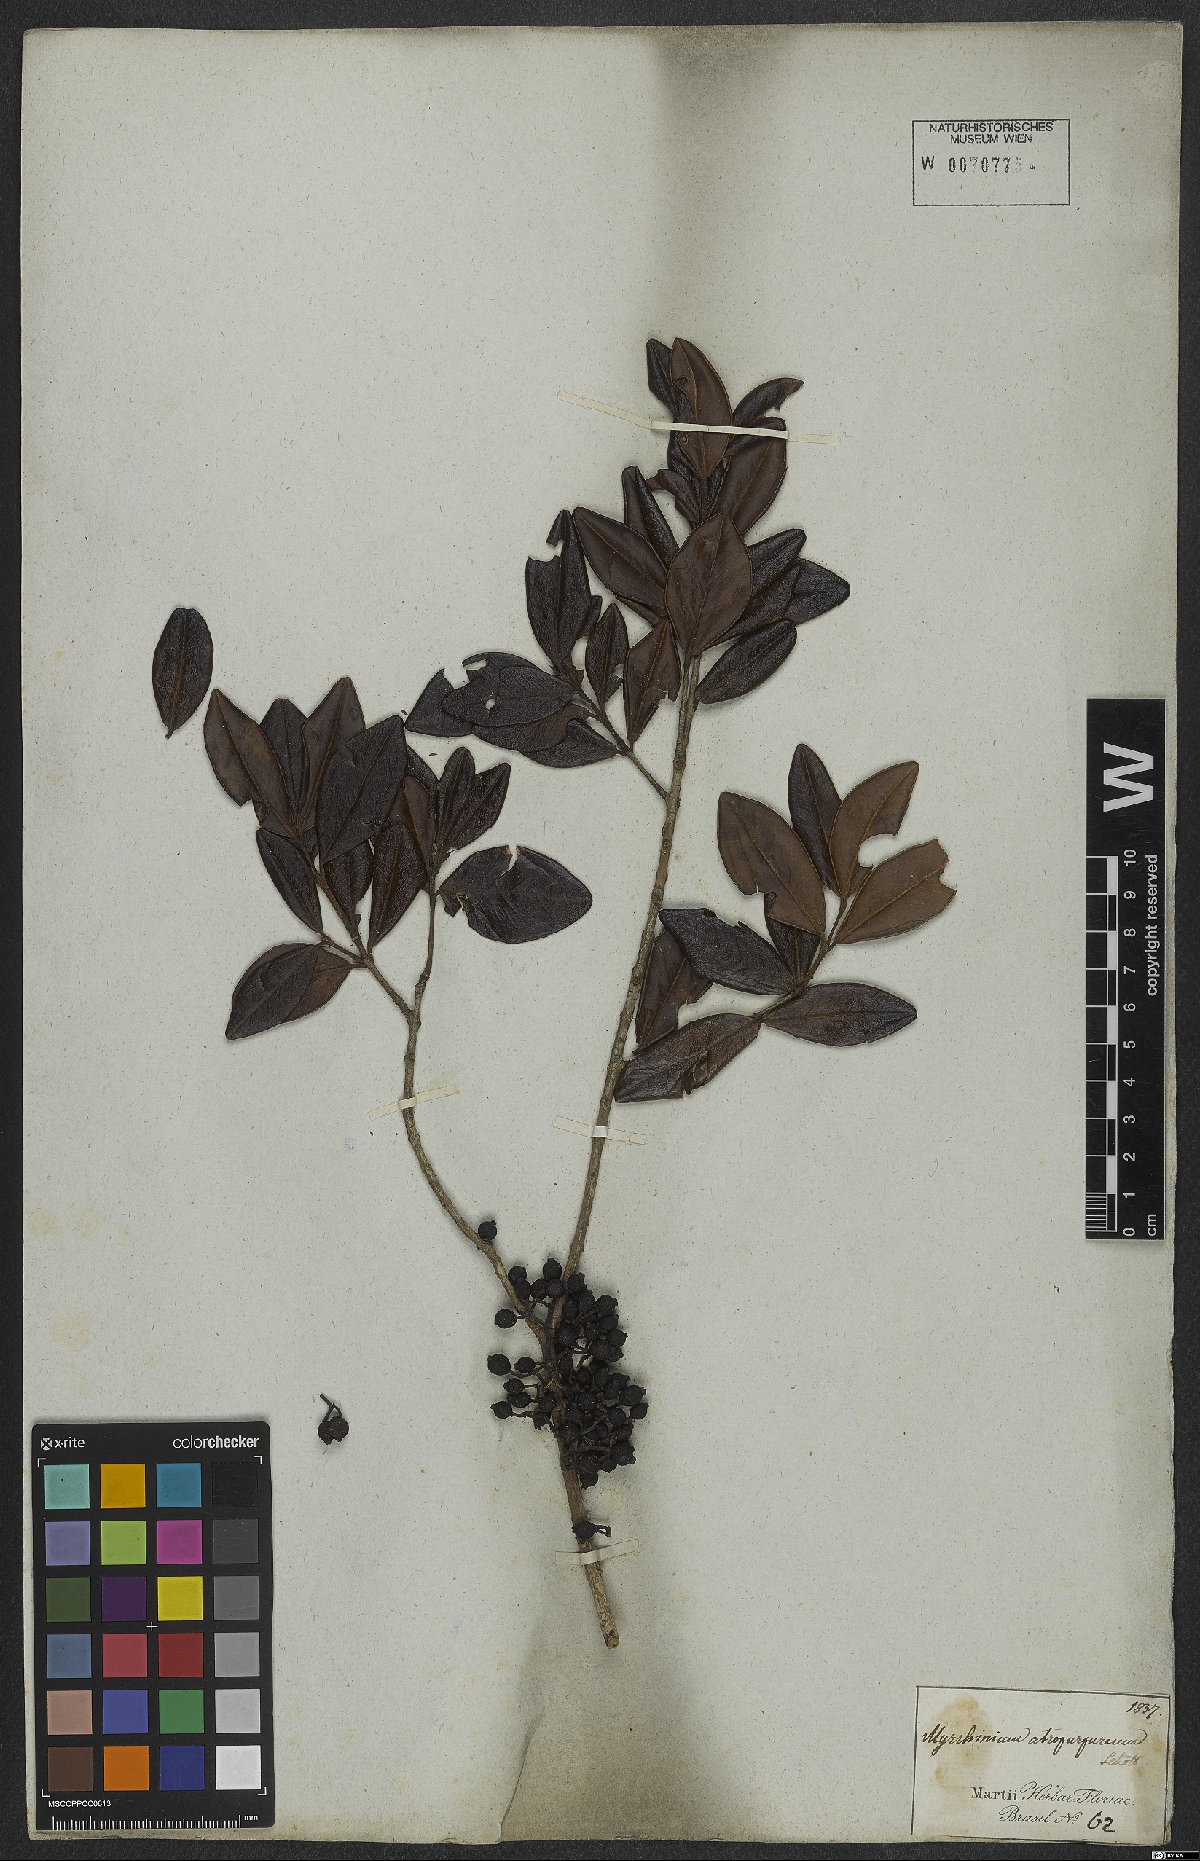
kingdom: Plantae
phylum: Tracheophyta
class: Magnoliopsida
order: Myrtales
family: Myrtaceae
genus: Myrrhinium
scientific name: Myrrhinium atropurpureum
